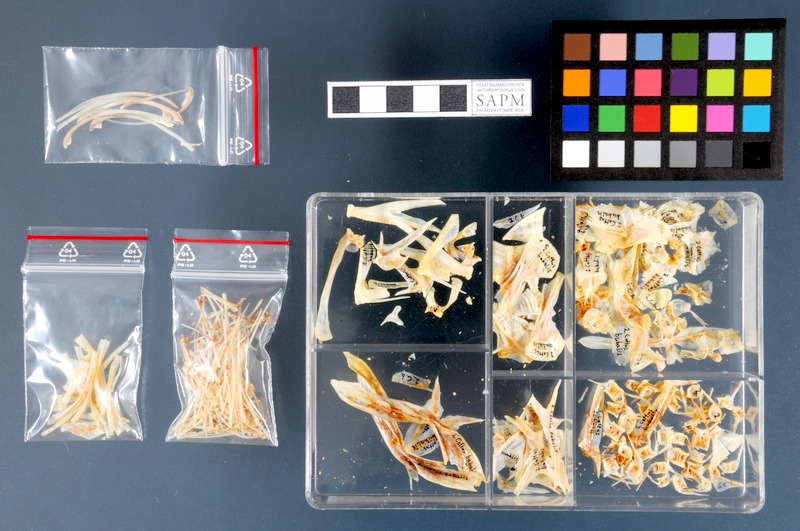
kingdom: Animalia
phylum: Chordata
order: Scorpaeniformes
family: Cottidae
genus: Taurulus
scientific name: Taurulus bubalis
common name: Sea scorpion
